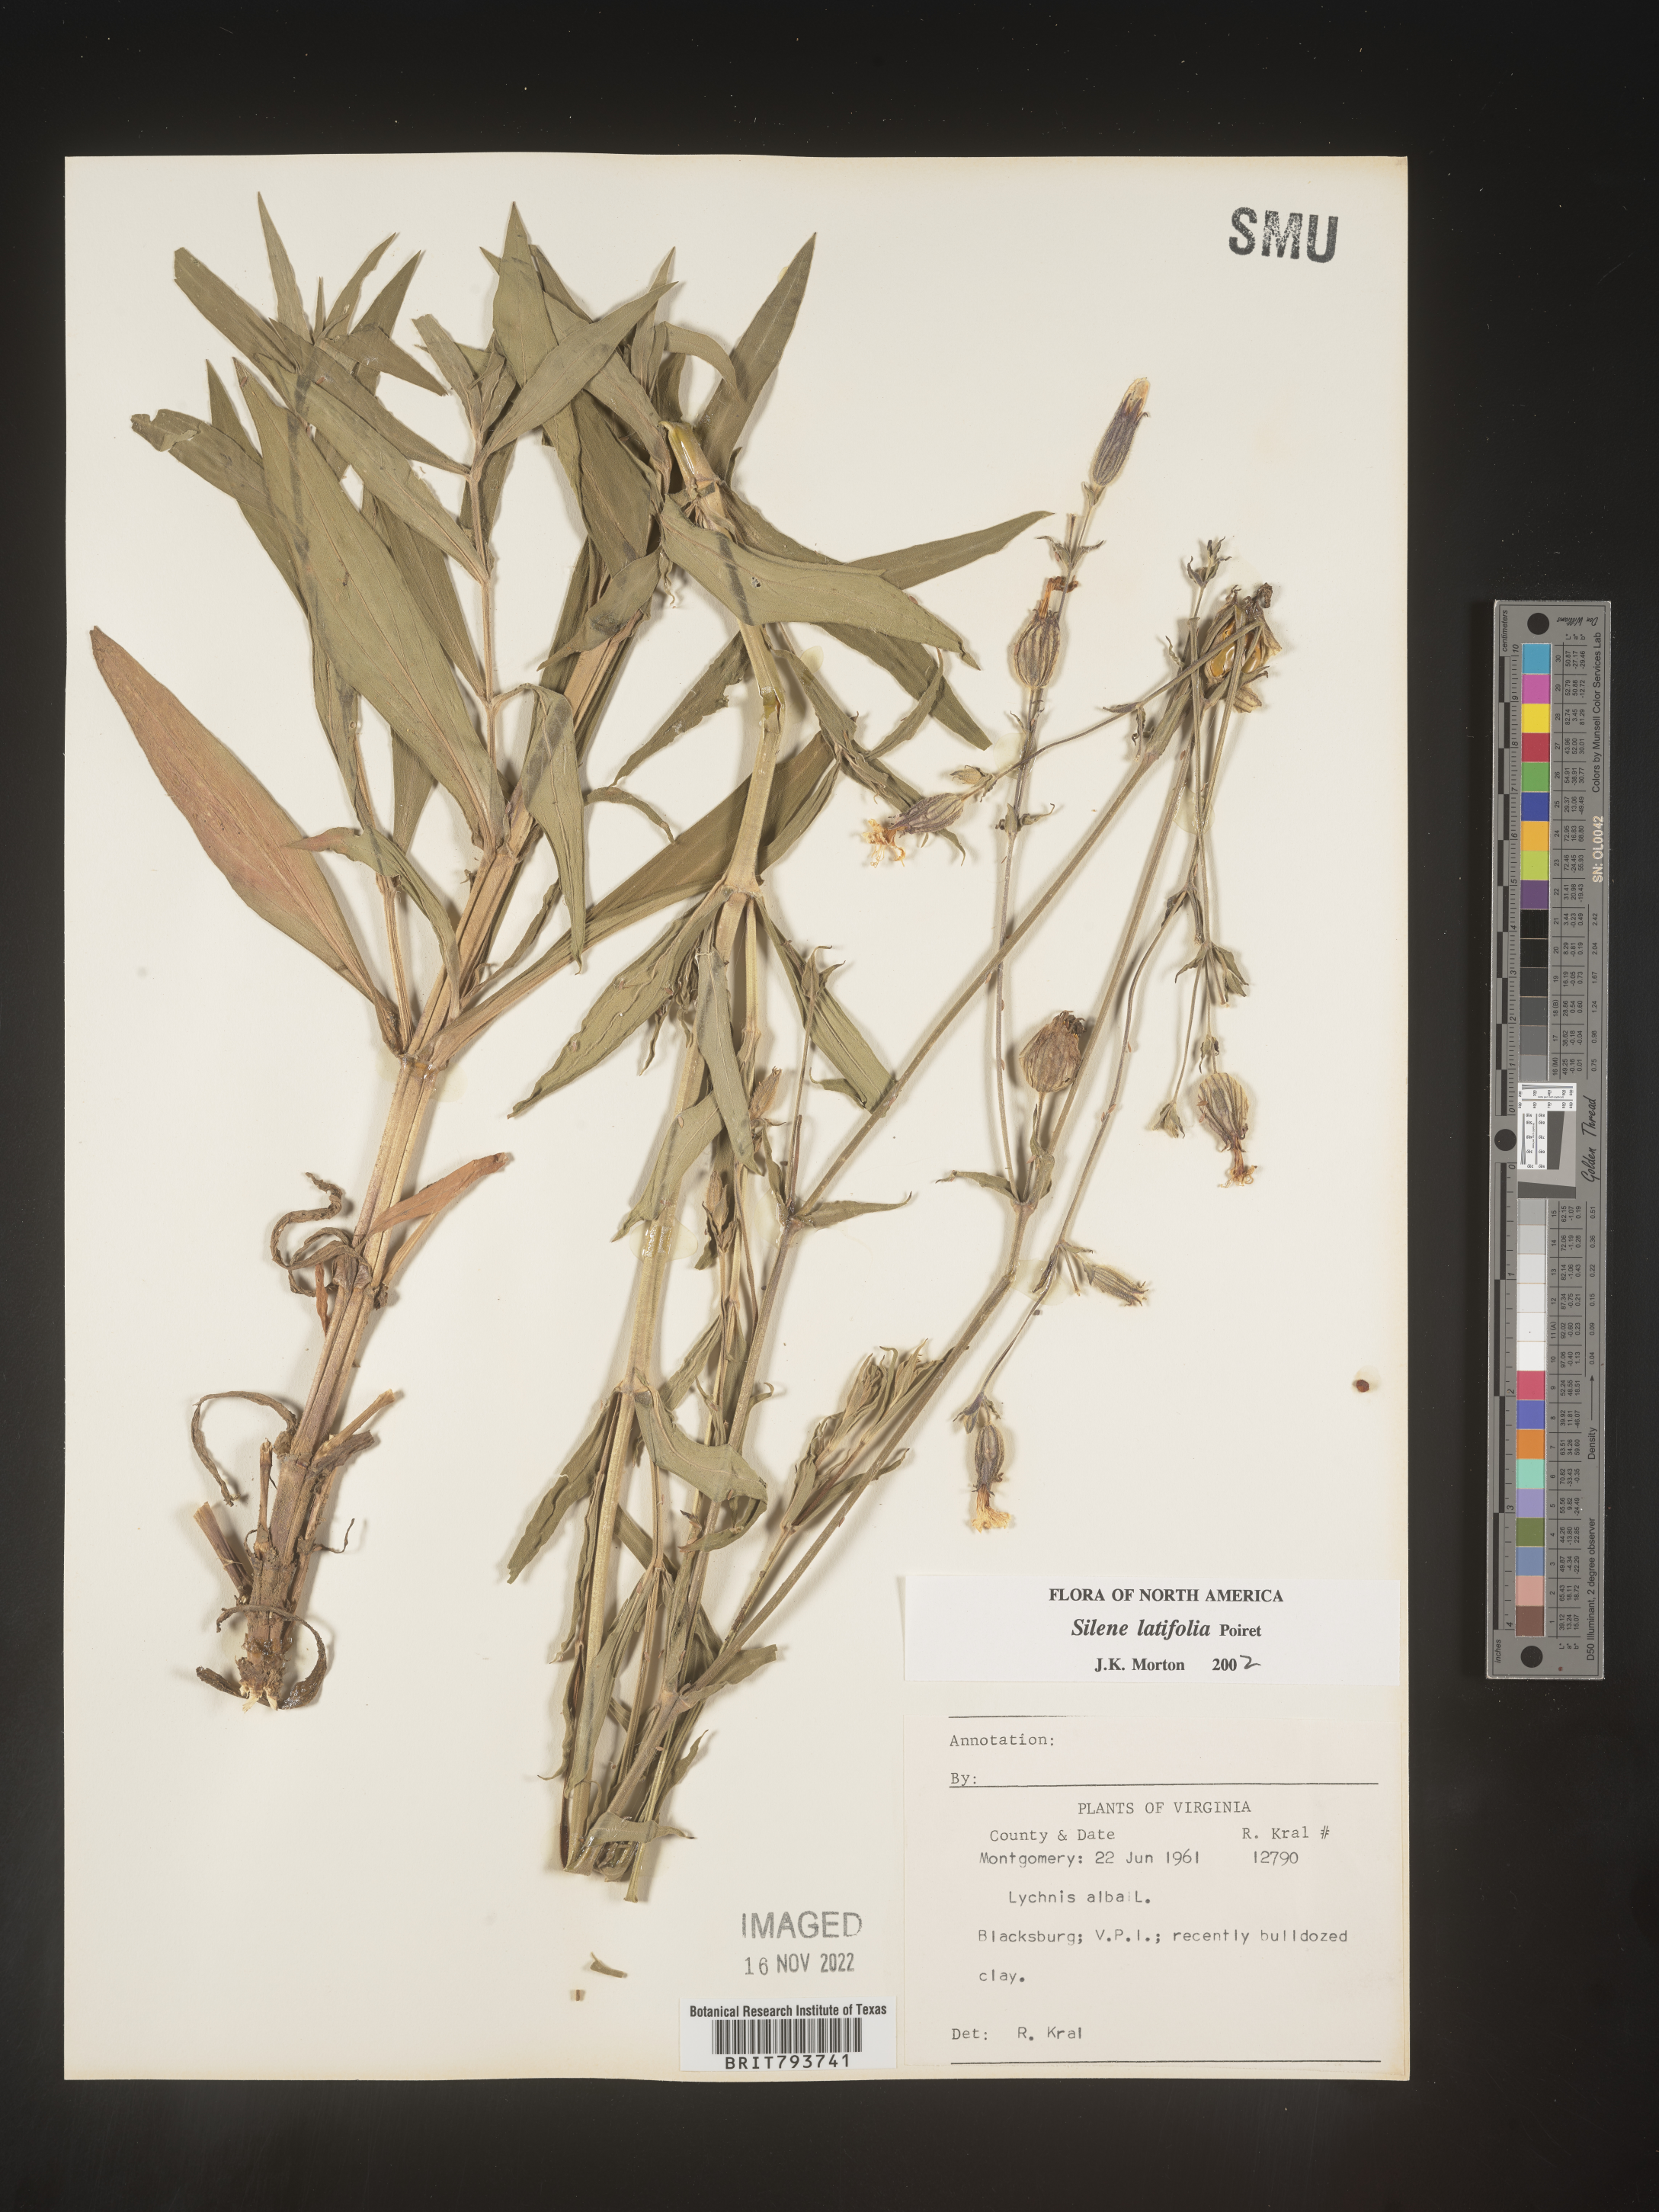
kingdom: Plantae
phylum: Tracheophyta
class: Magnoliopsida
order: Caryophyllales
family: Caryophyllaceae
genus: Silene
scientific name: Silene latifolia
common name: White campion
